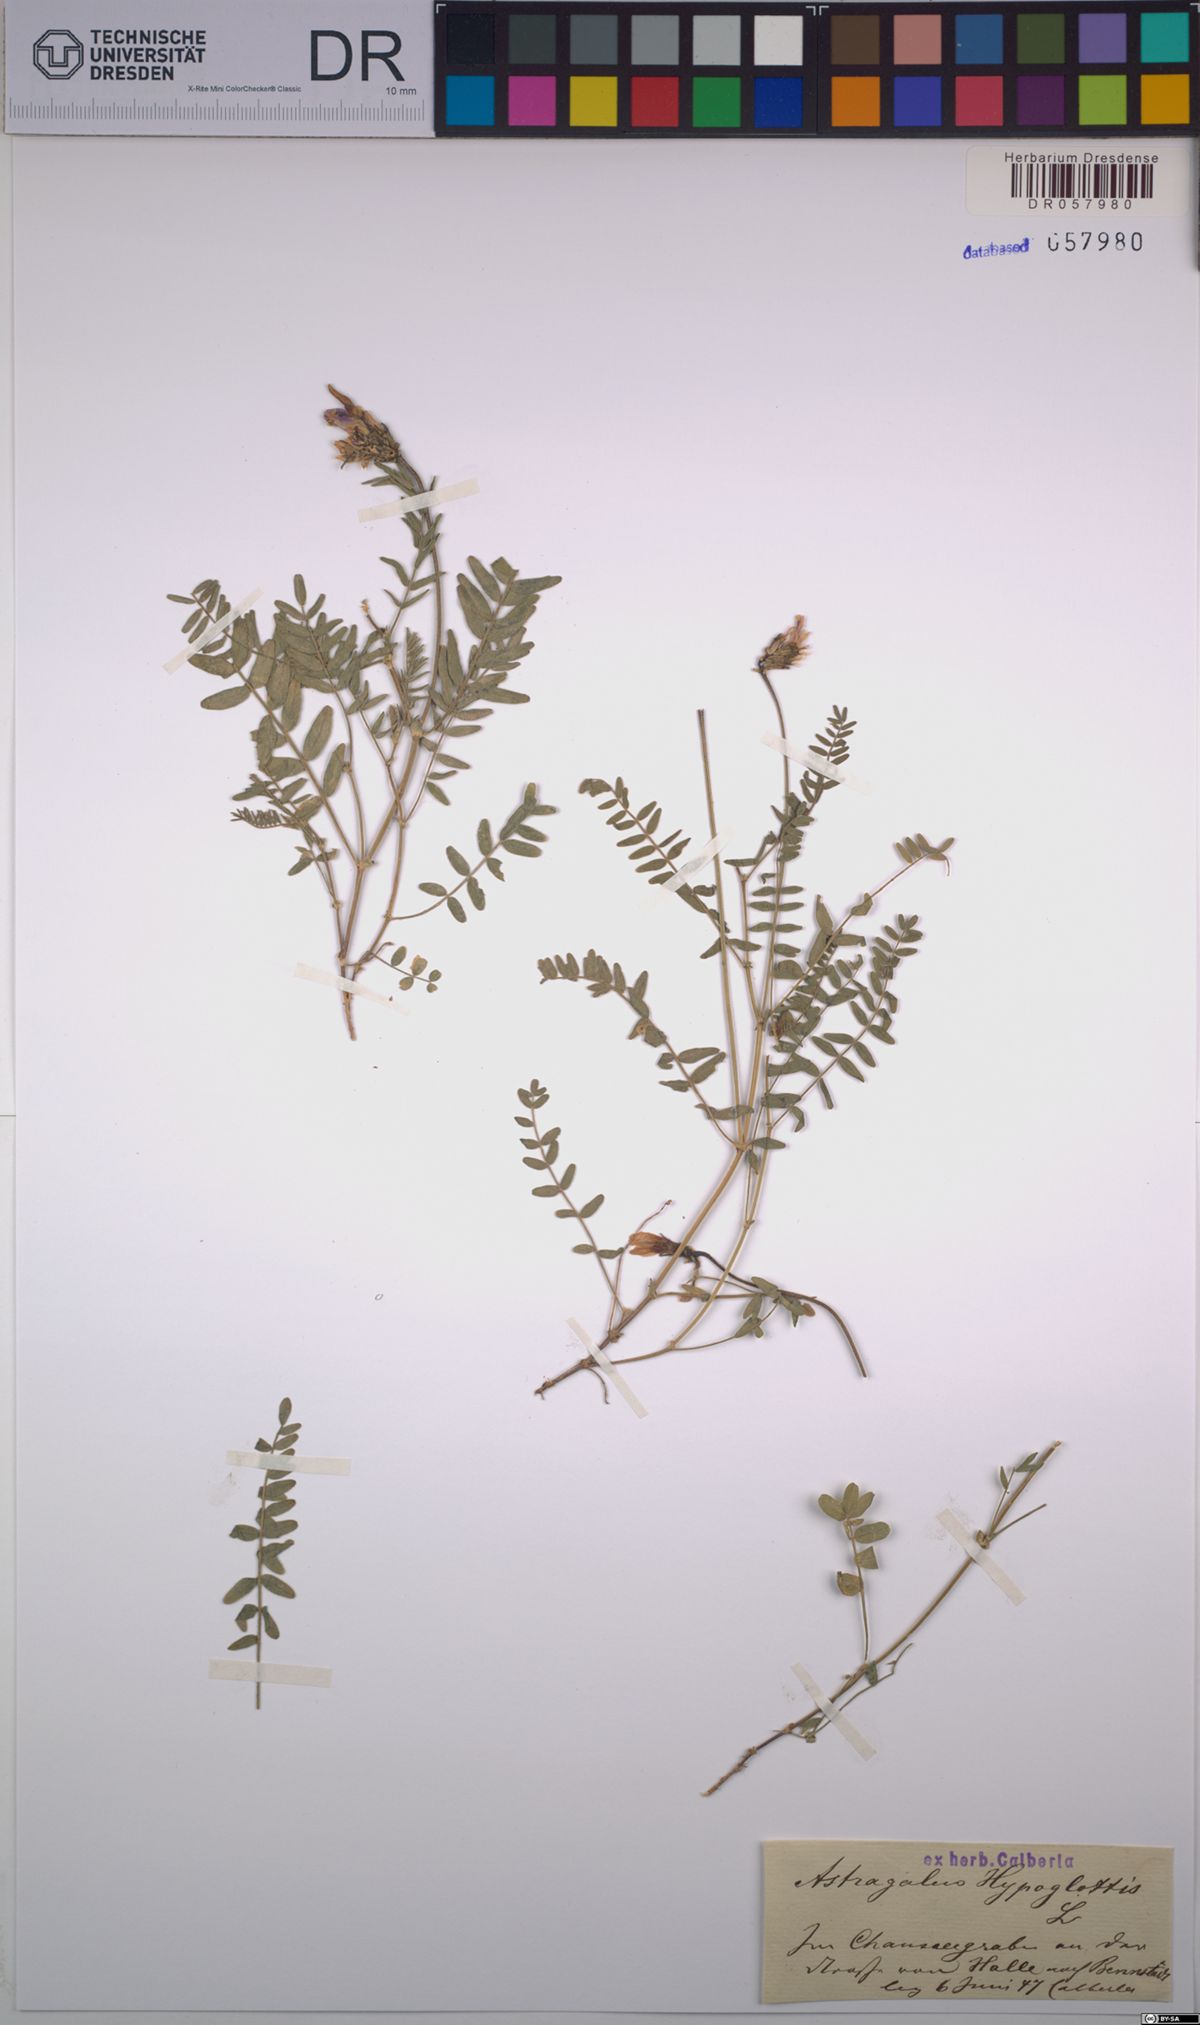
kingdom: Plantae
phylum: Tracheophyta
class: Magnoliopsida
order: Fabales
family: Fabaceae
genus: Astragalus
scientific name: Astragalus hypoglottis
